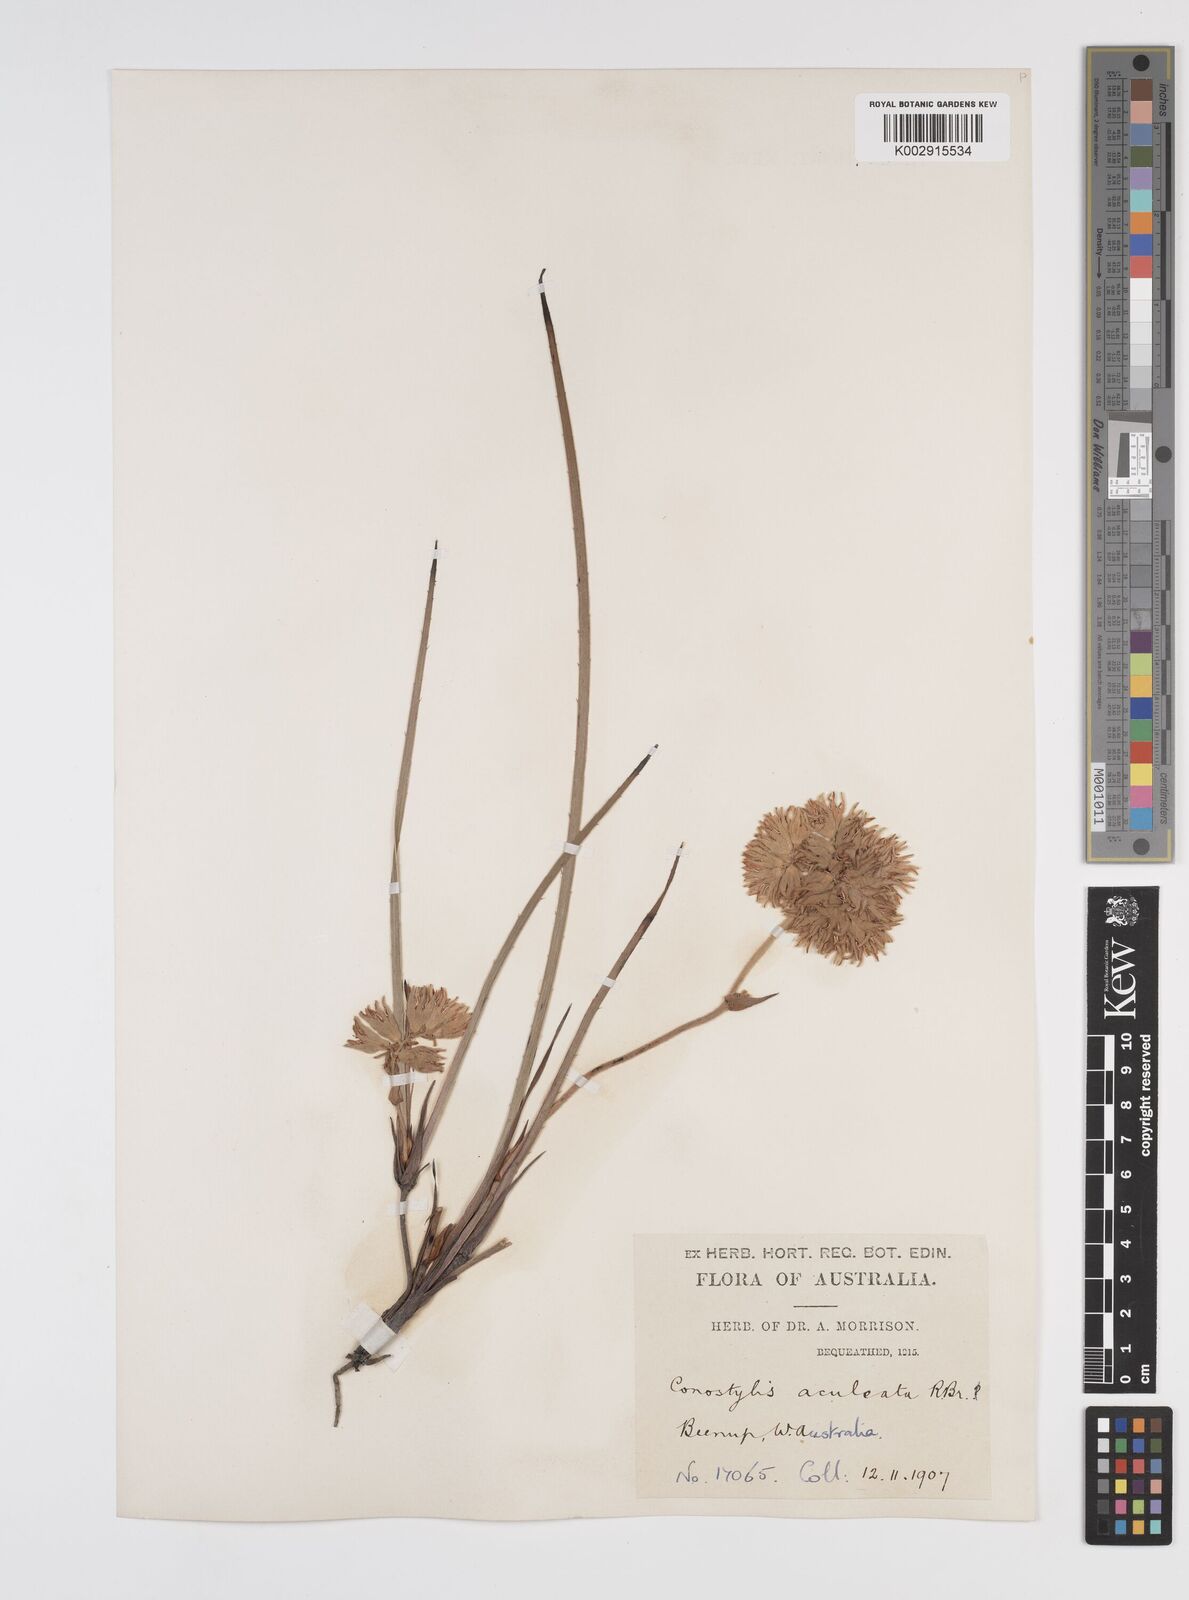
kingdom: Plantae
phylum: Tracheophyta
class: Liliopsida
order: Commelinales
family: Haemodoraceae
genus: Conostylis
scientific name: Conostylis aculeata
